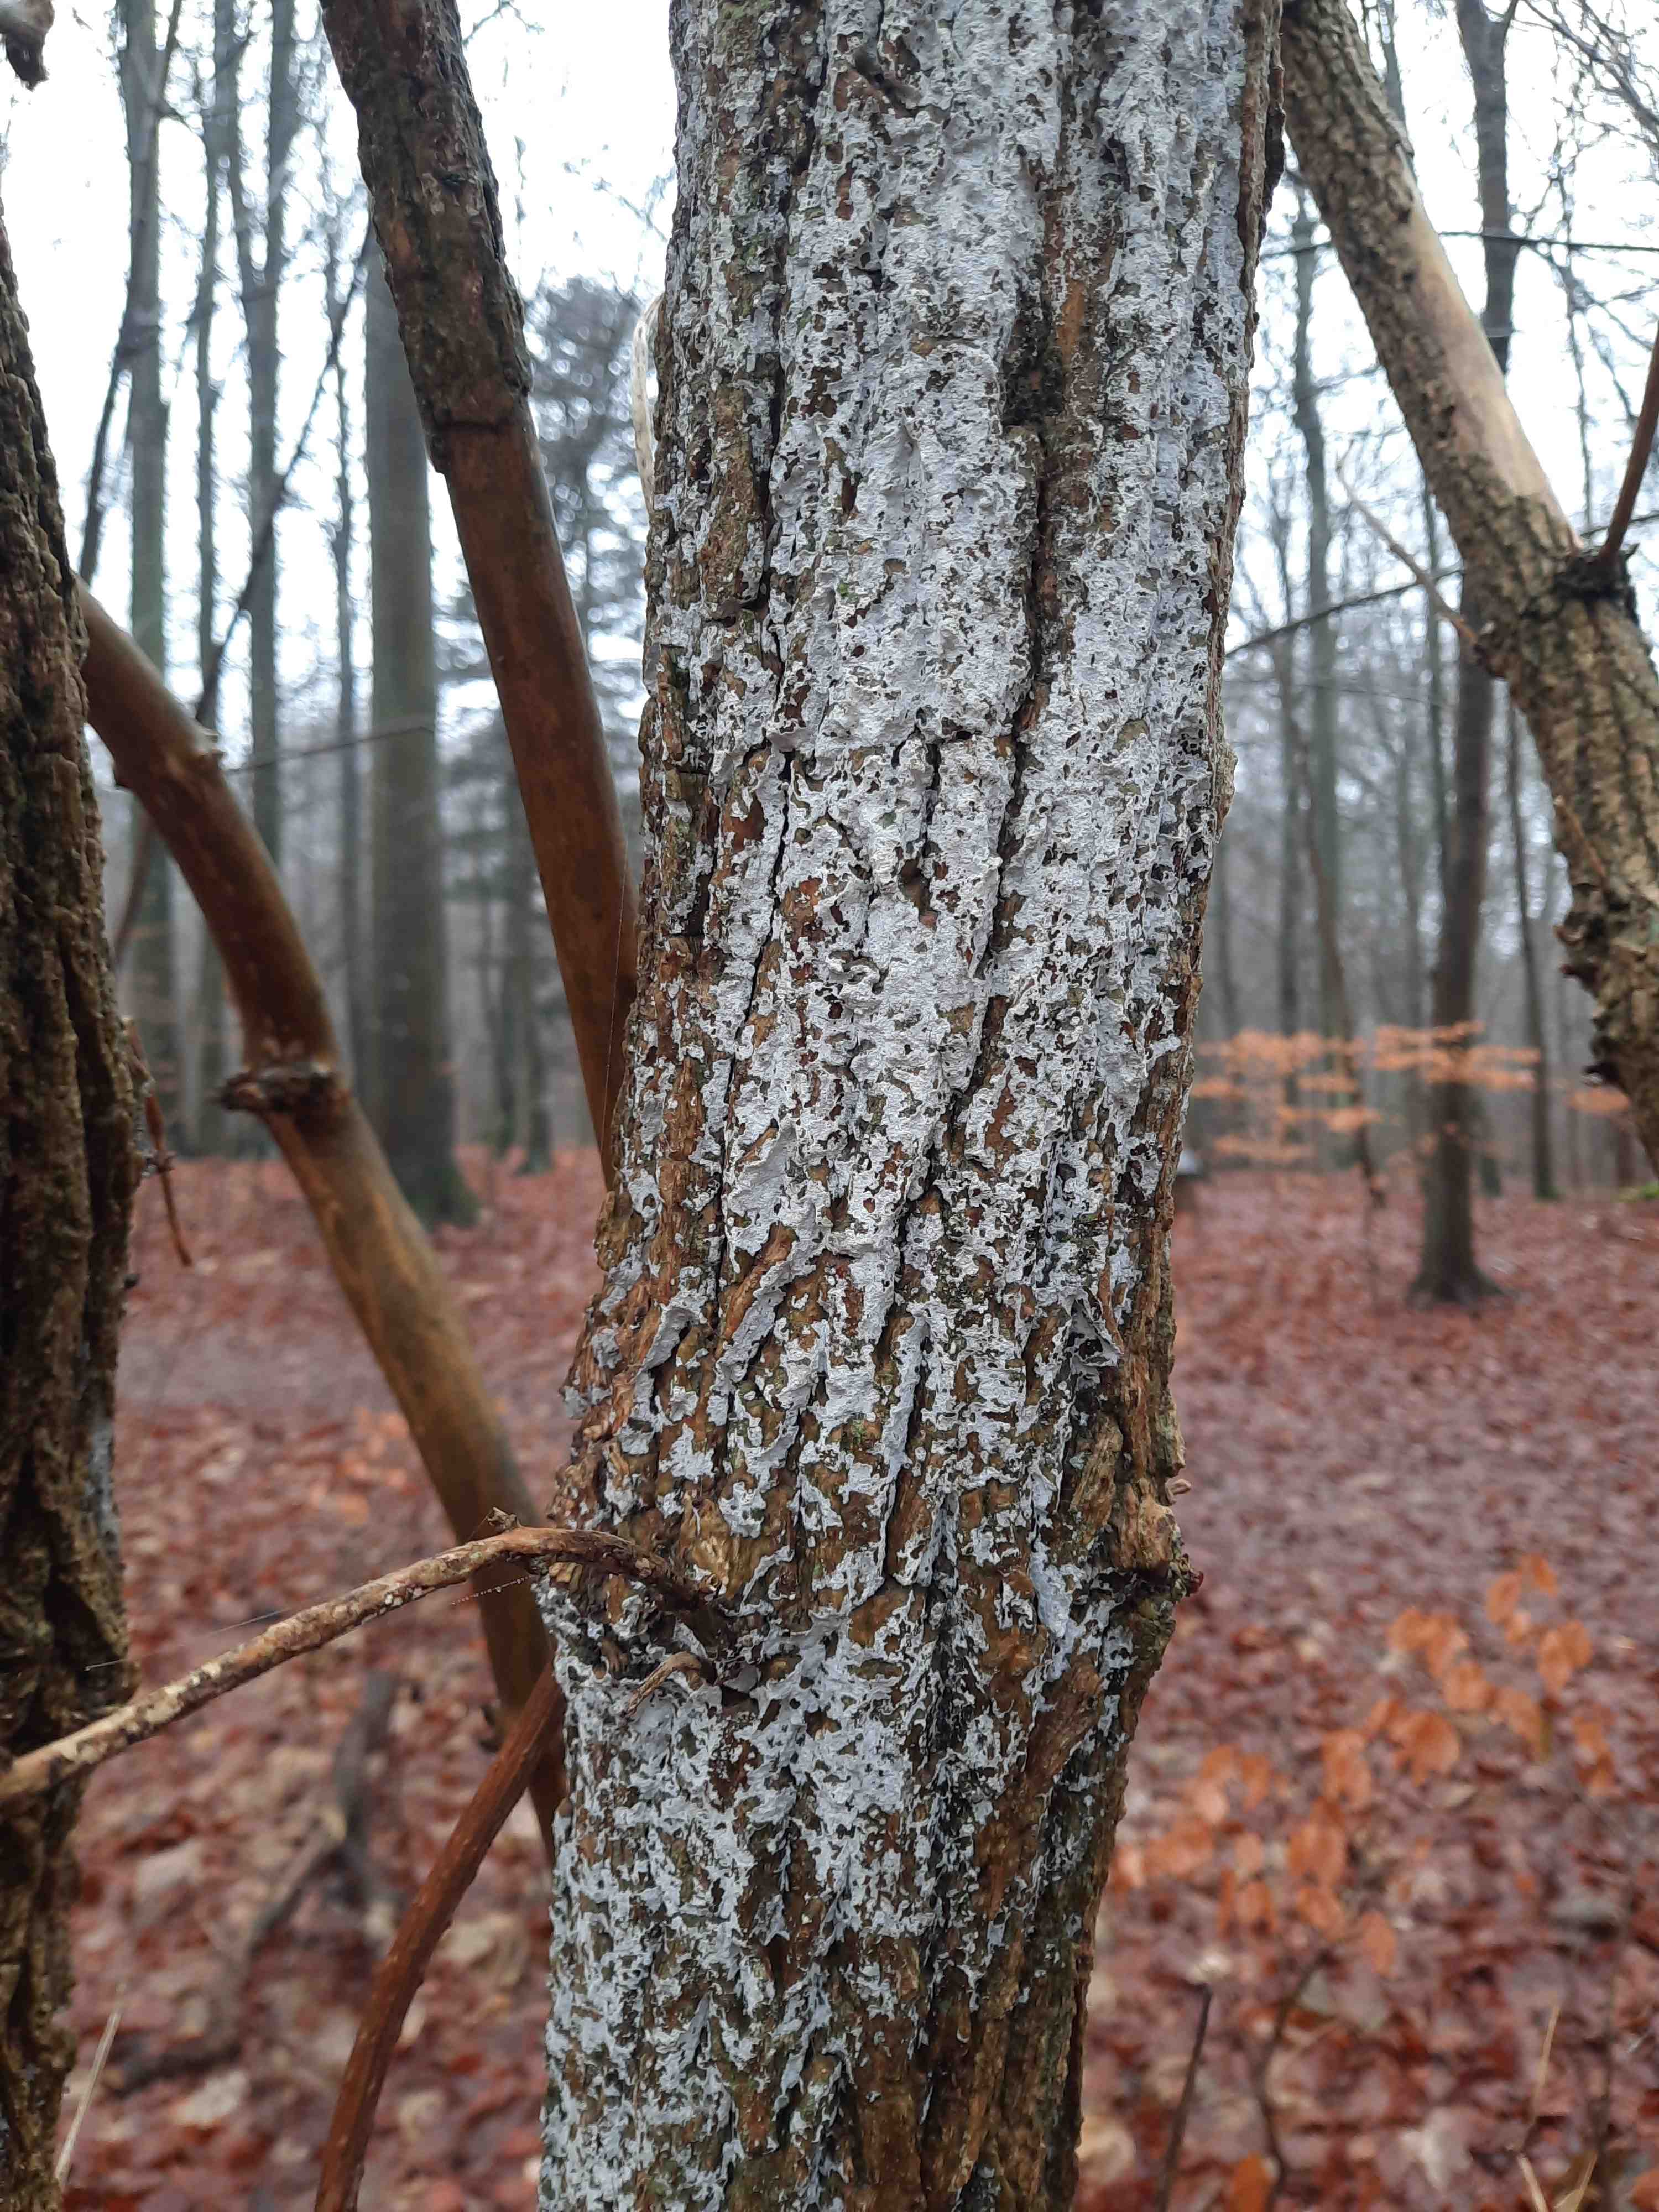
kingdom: Fungi
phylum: Basidiomycota
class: Agaricomycetes
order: Corticiales
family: Corticiaceae
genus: Lyomyces
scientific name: Lyomyces sambuci
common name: almindelig hyldehinde
